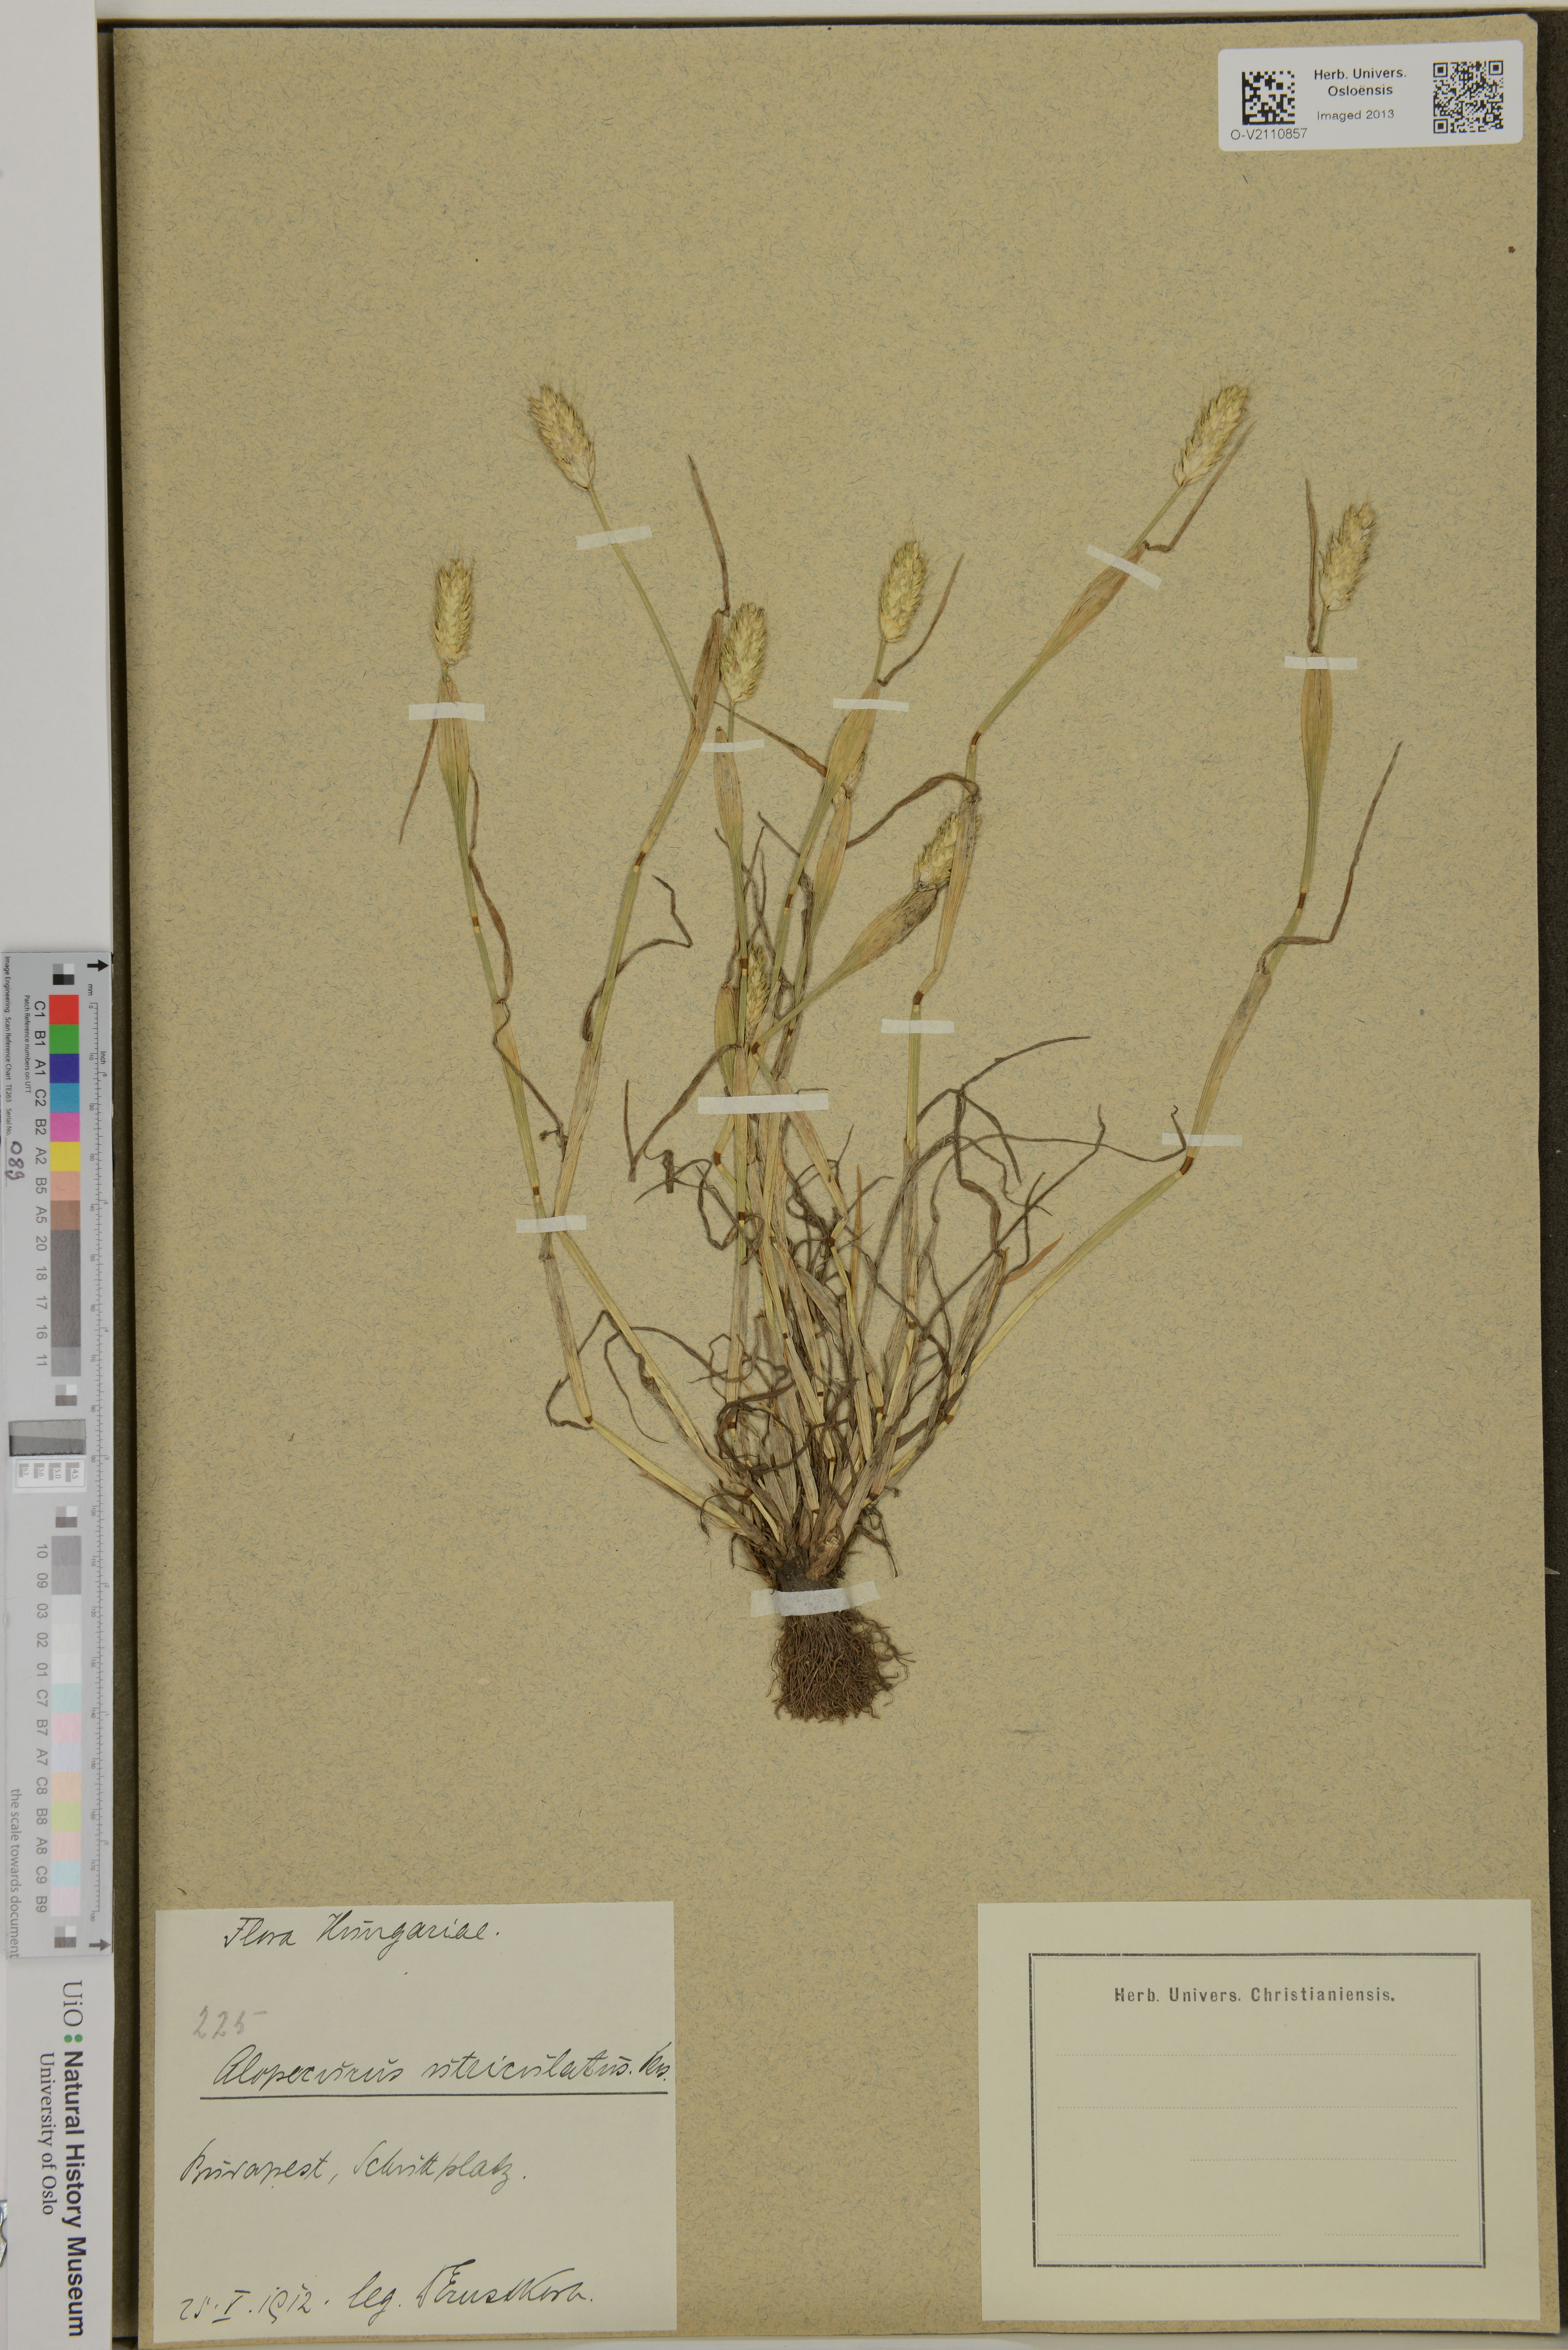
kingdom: Plantae
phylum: Tracheophyta
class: Liliopsida
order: Poales
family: Poaceae
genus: Alopecurus
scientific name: Alopecurus utriculatus
